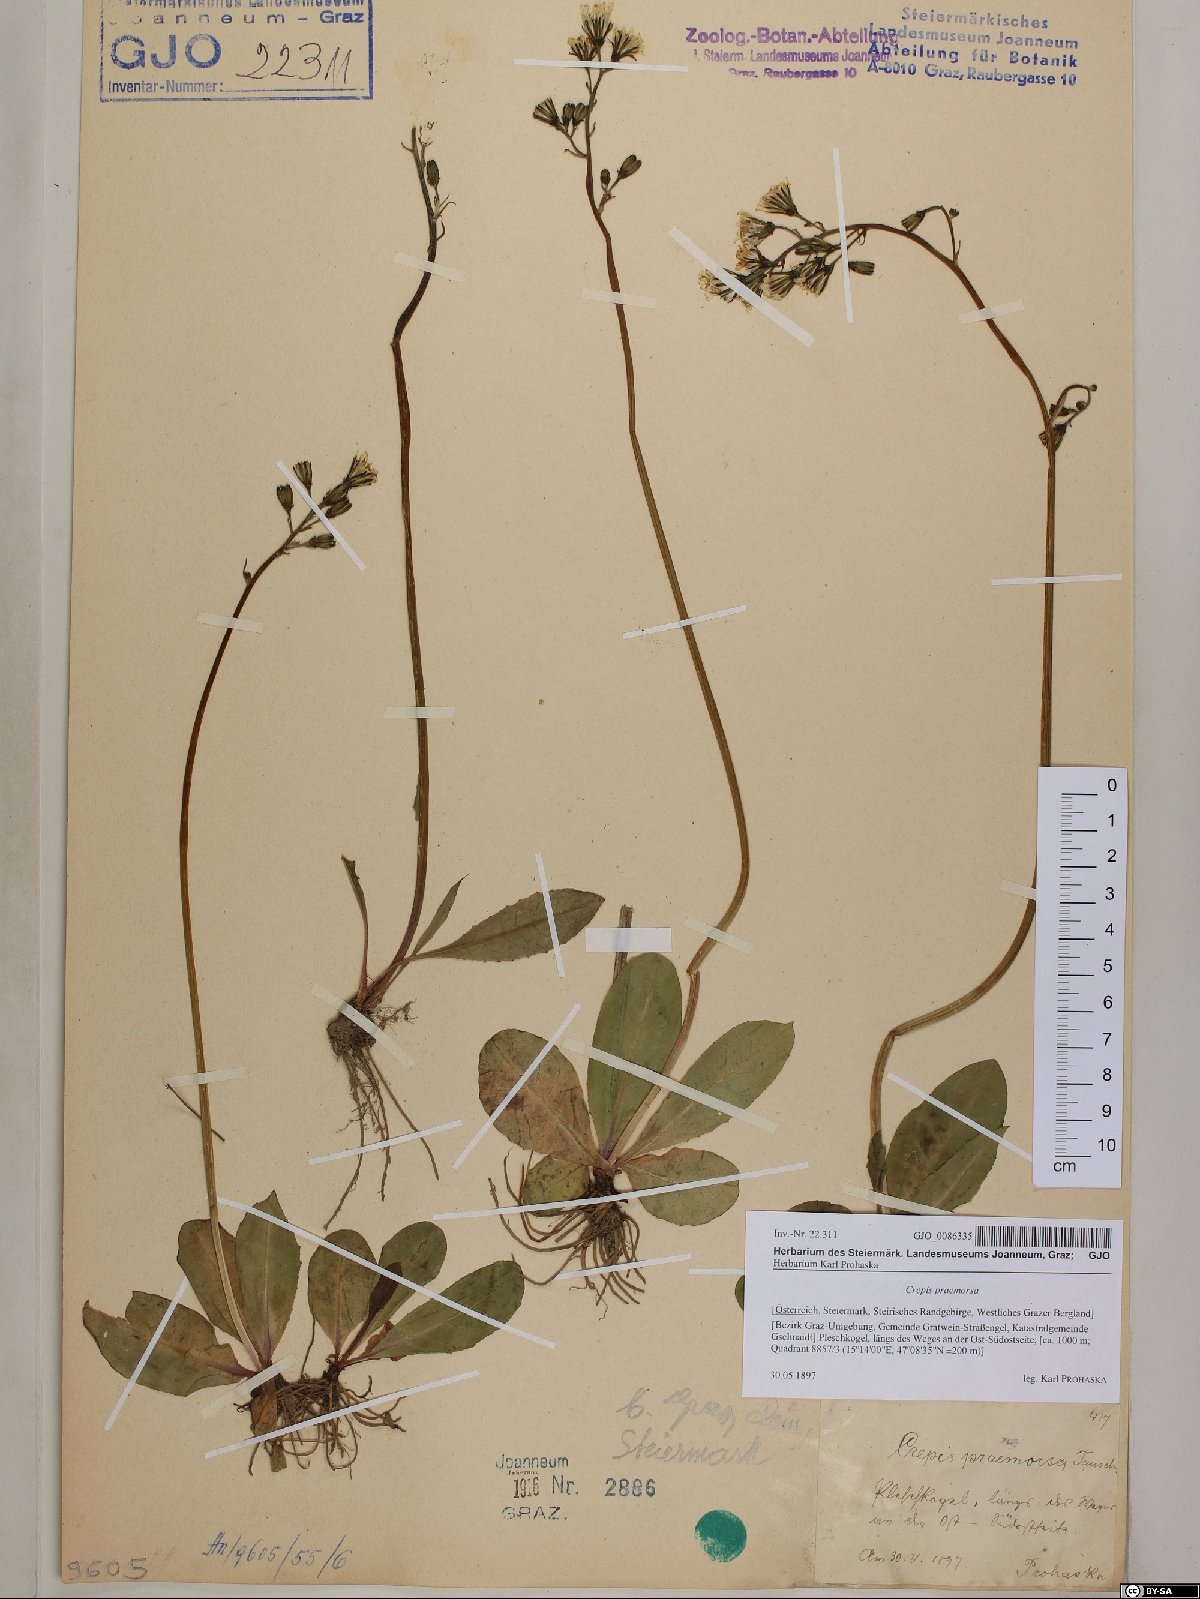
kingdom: Plantae
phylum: Tracheophyta
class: Magnoliopsida
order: Asterales
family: Asteraceae
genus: Crepis
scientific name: Crepis praemorsa
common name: Leafless hawk's-beard
